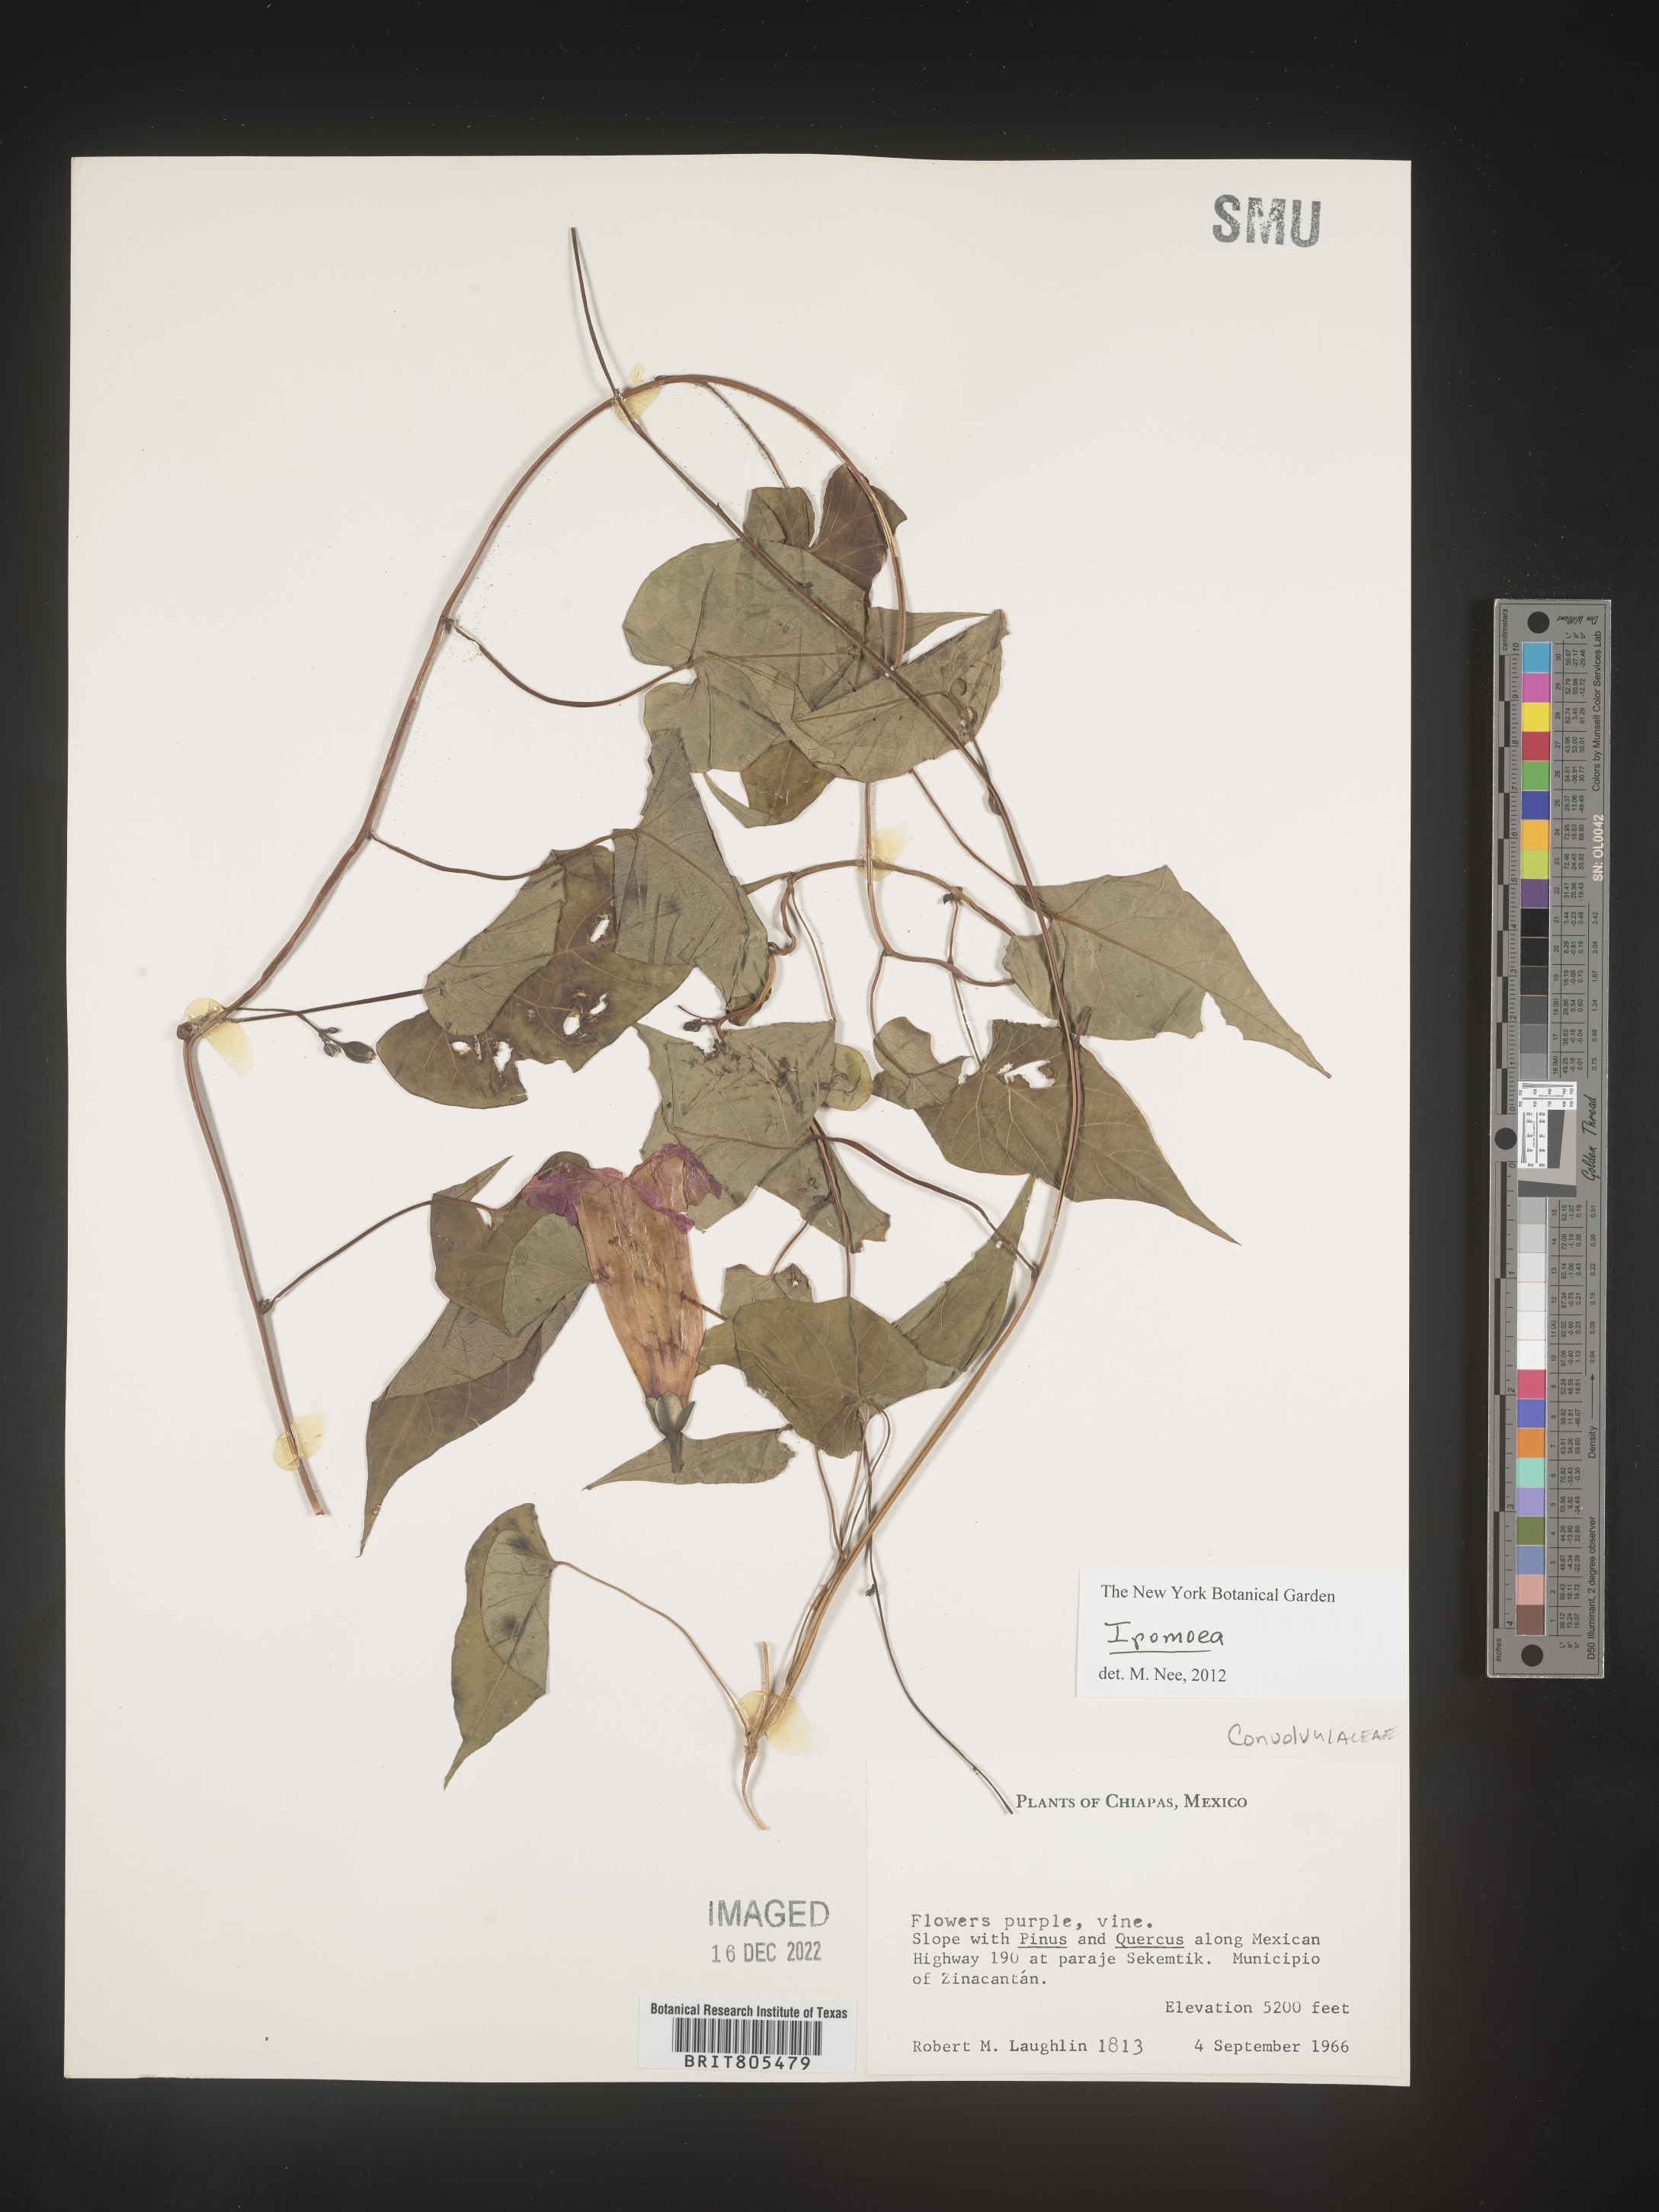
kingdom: Plantae
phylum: Tracheophyta
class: Magnoliopsida
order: Solanales
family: Convolvulaceae
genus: Ipomoea
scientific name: Ipomoea
